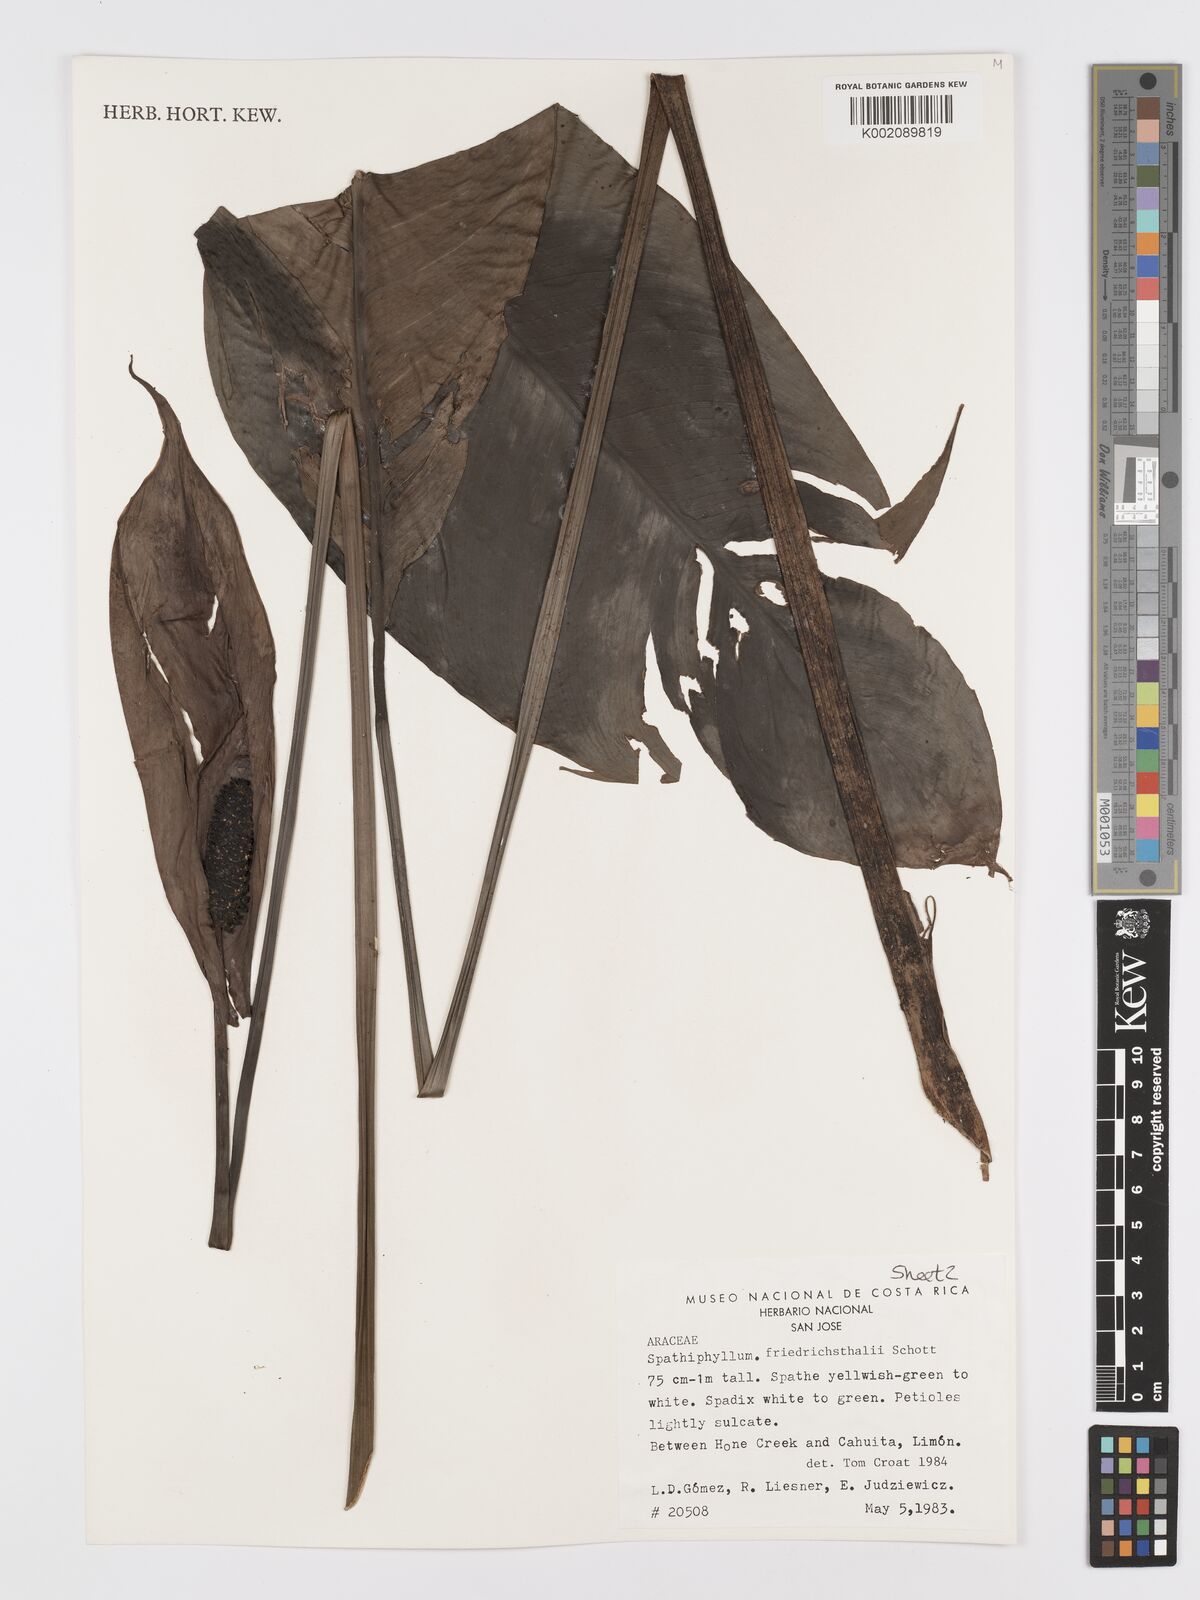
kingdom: Plantae
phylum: Tracheophyta
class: Liliopsida
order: Alismatales
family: Araceae
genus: Spathiphyllum
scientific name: Spathiphyllum friedrichsthalii
